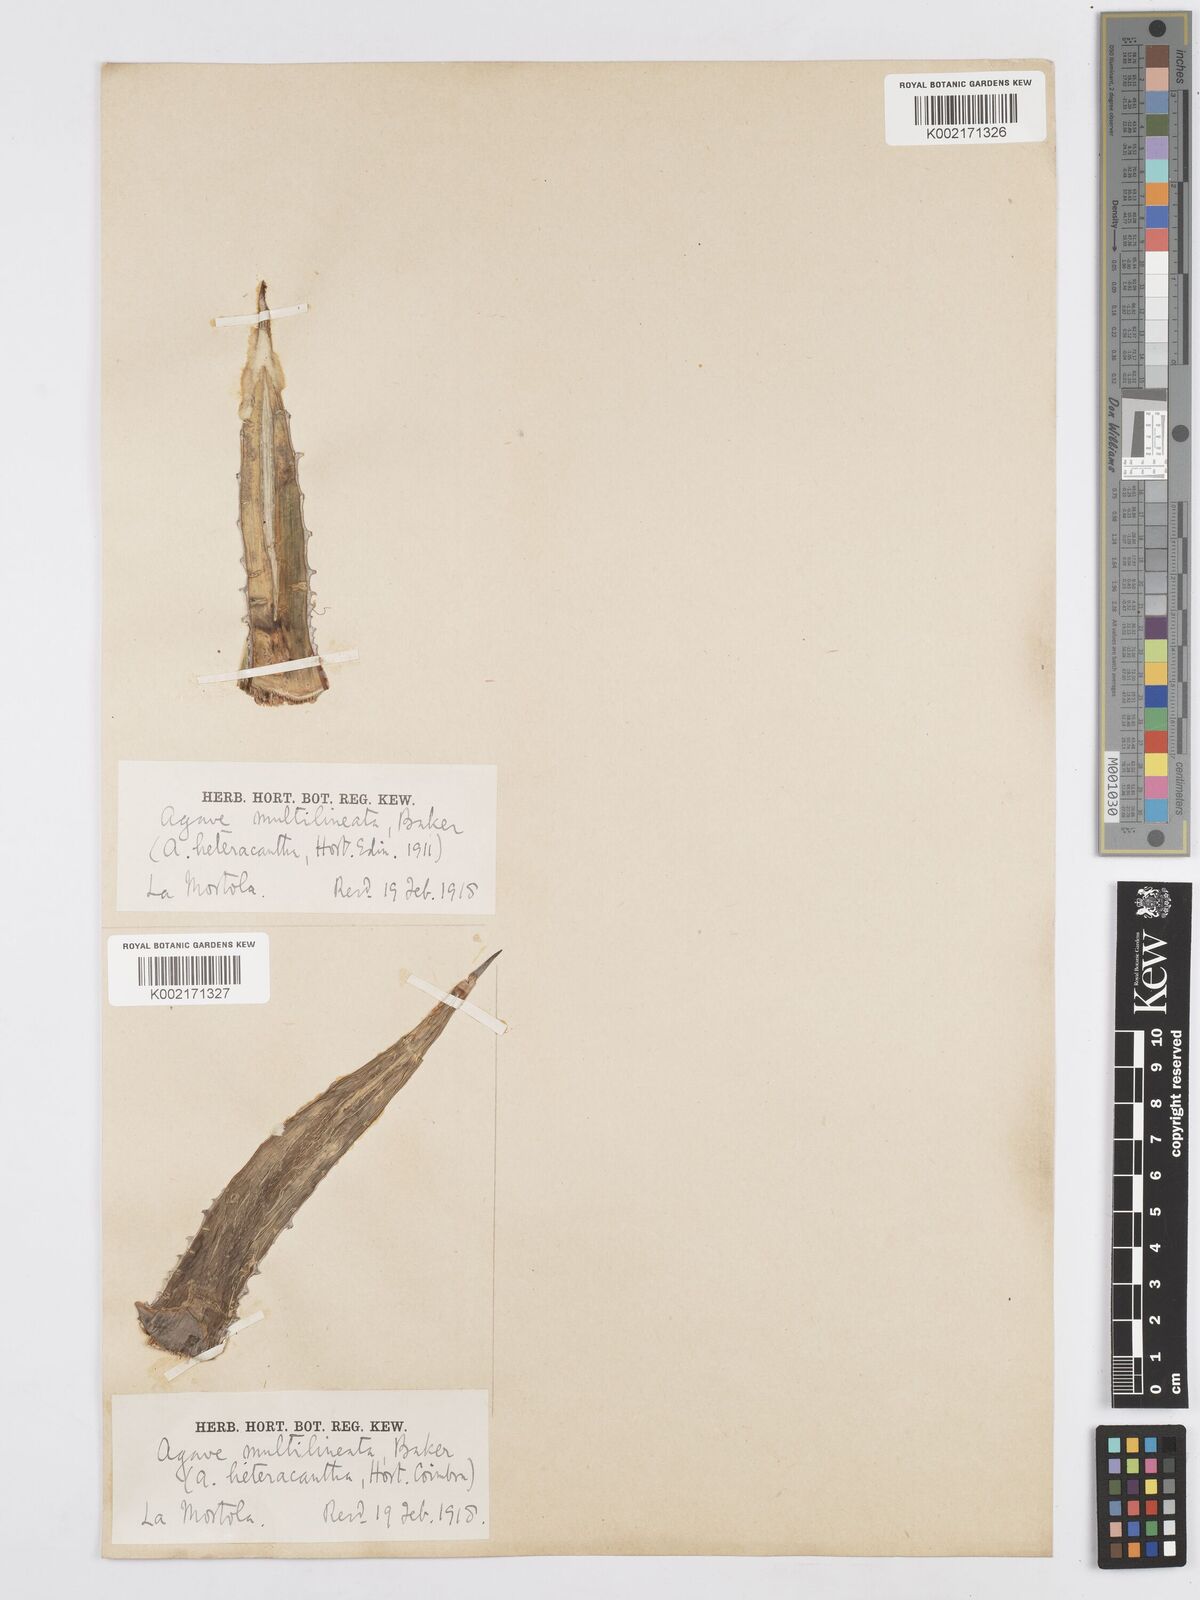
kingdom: Plantae
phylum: Tracheophyta
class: Liliopsida
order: Asparagales
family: Asparagaceae
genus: Agave
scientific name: Agave lechuguilla
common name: Lecheguilla agave
